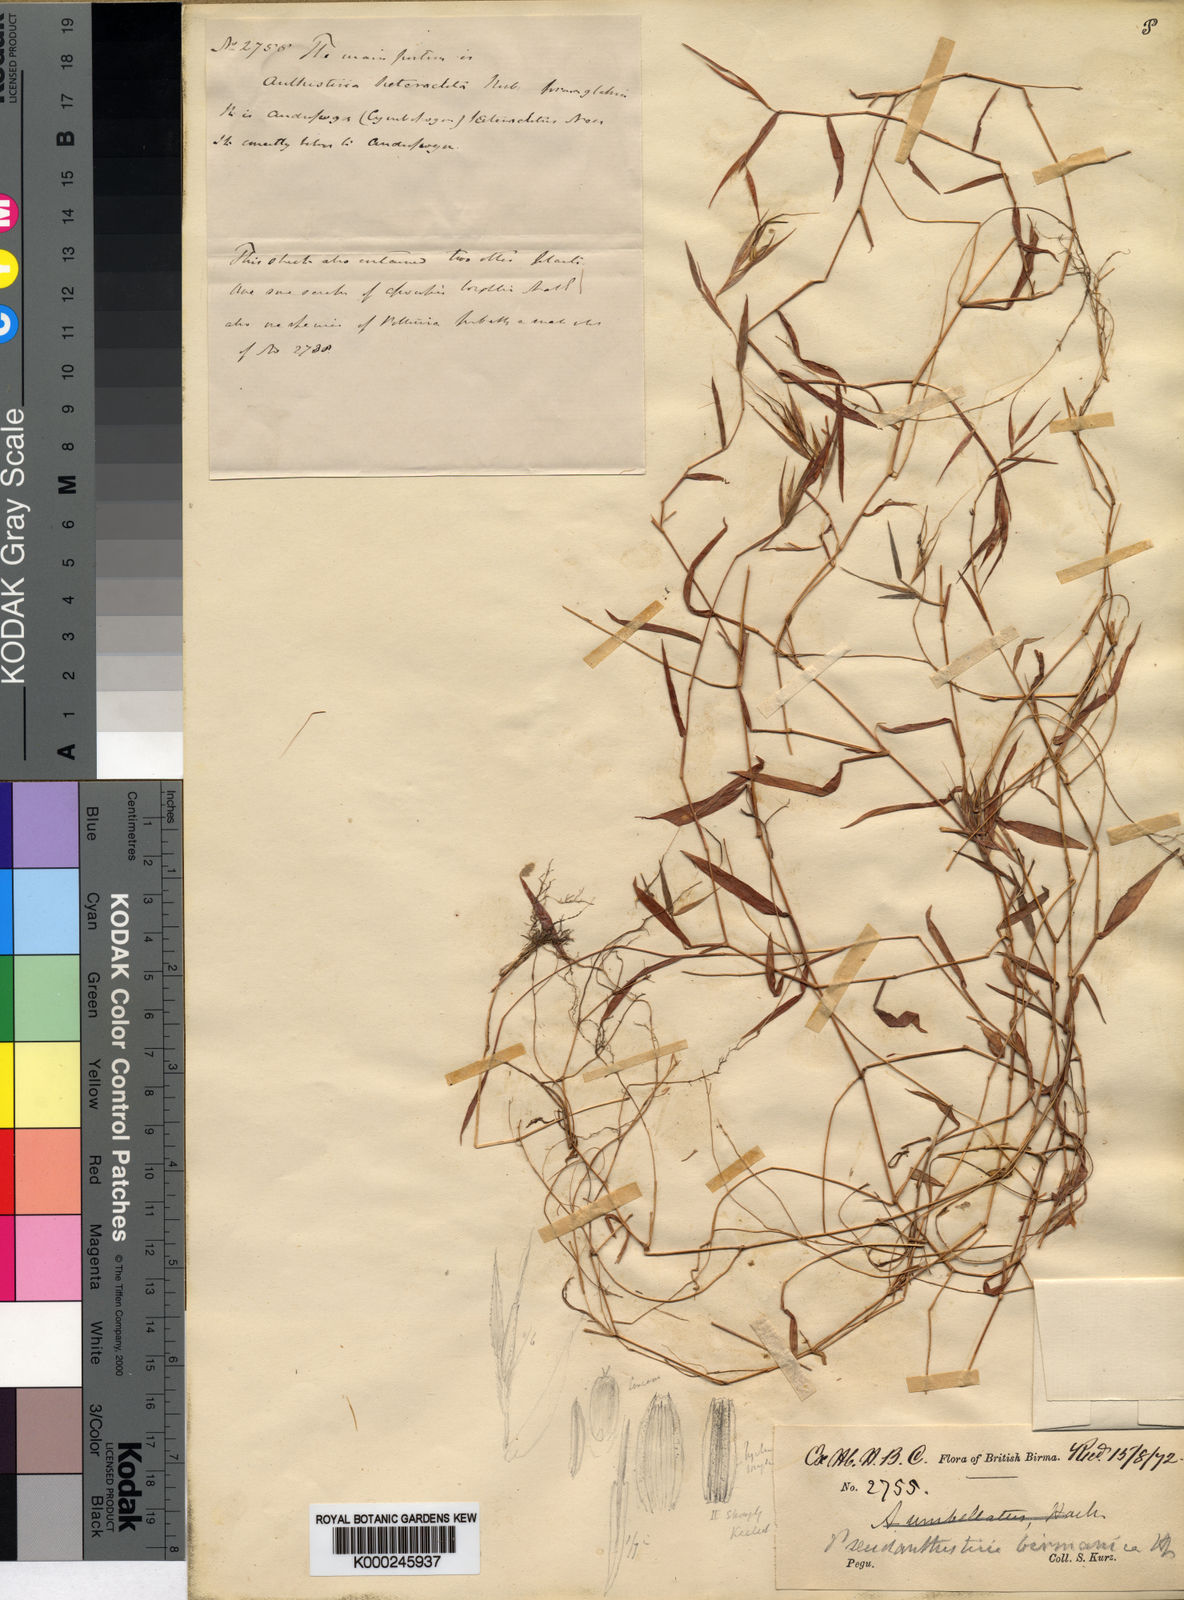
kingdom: Plantae
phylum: Tracheophyta
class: Liliopsida
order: Poales
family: Poaceae
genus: Pseudanthistiria
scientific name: Pseudanthistiria umbellata
